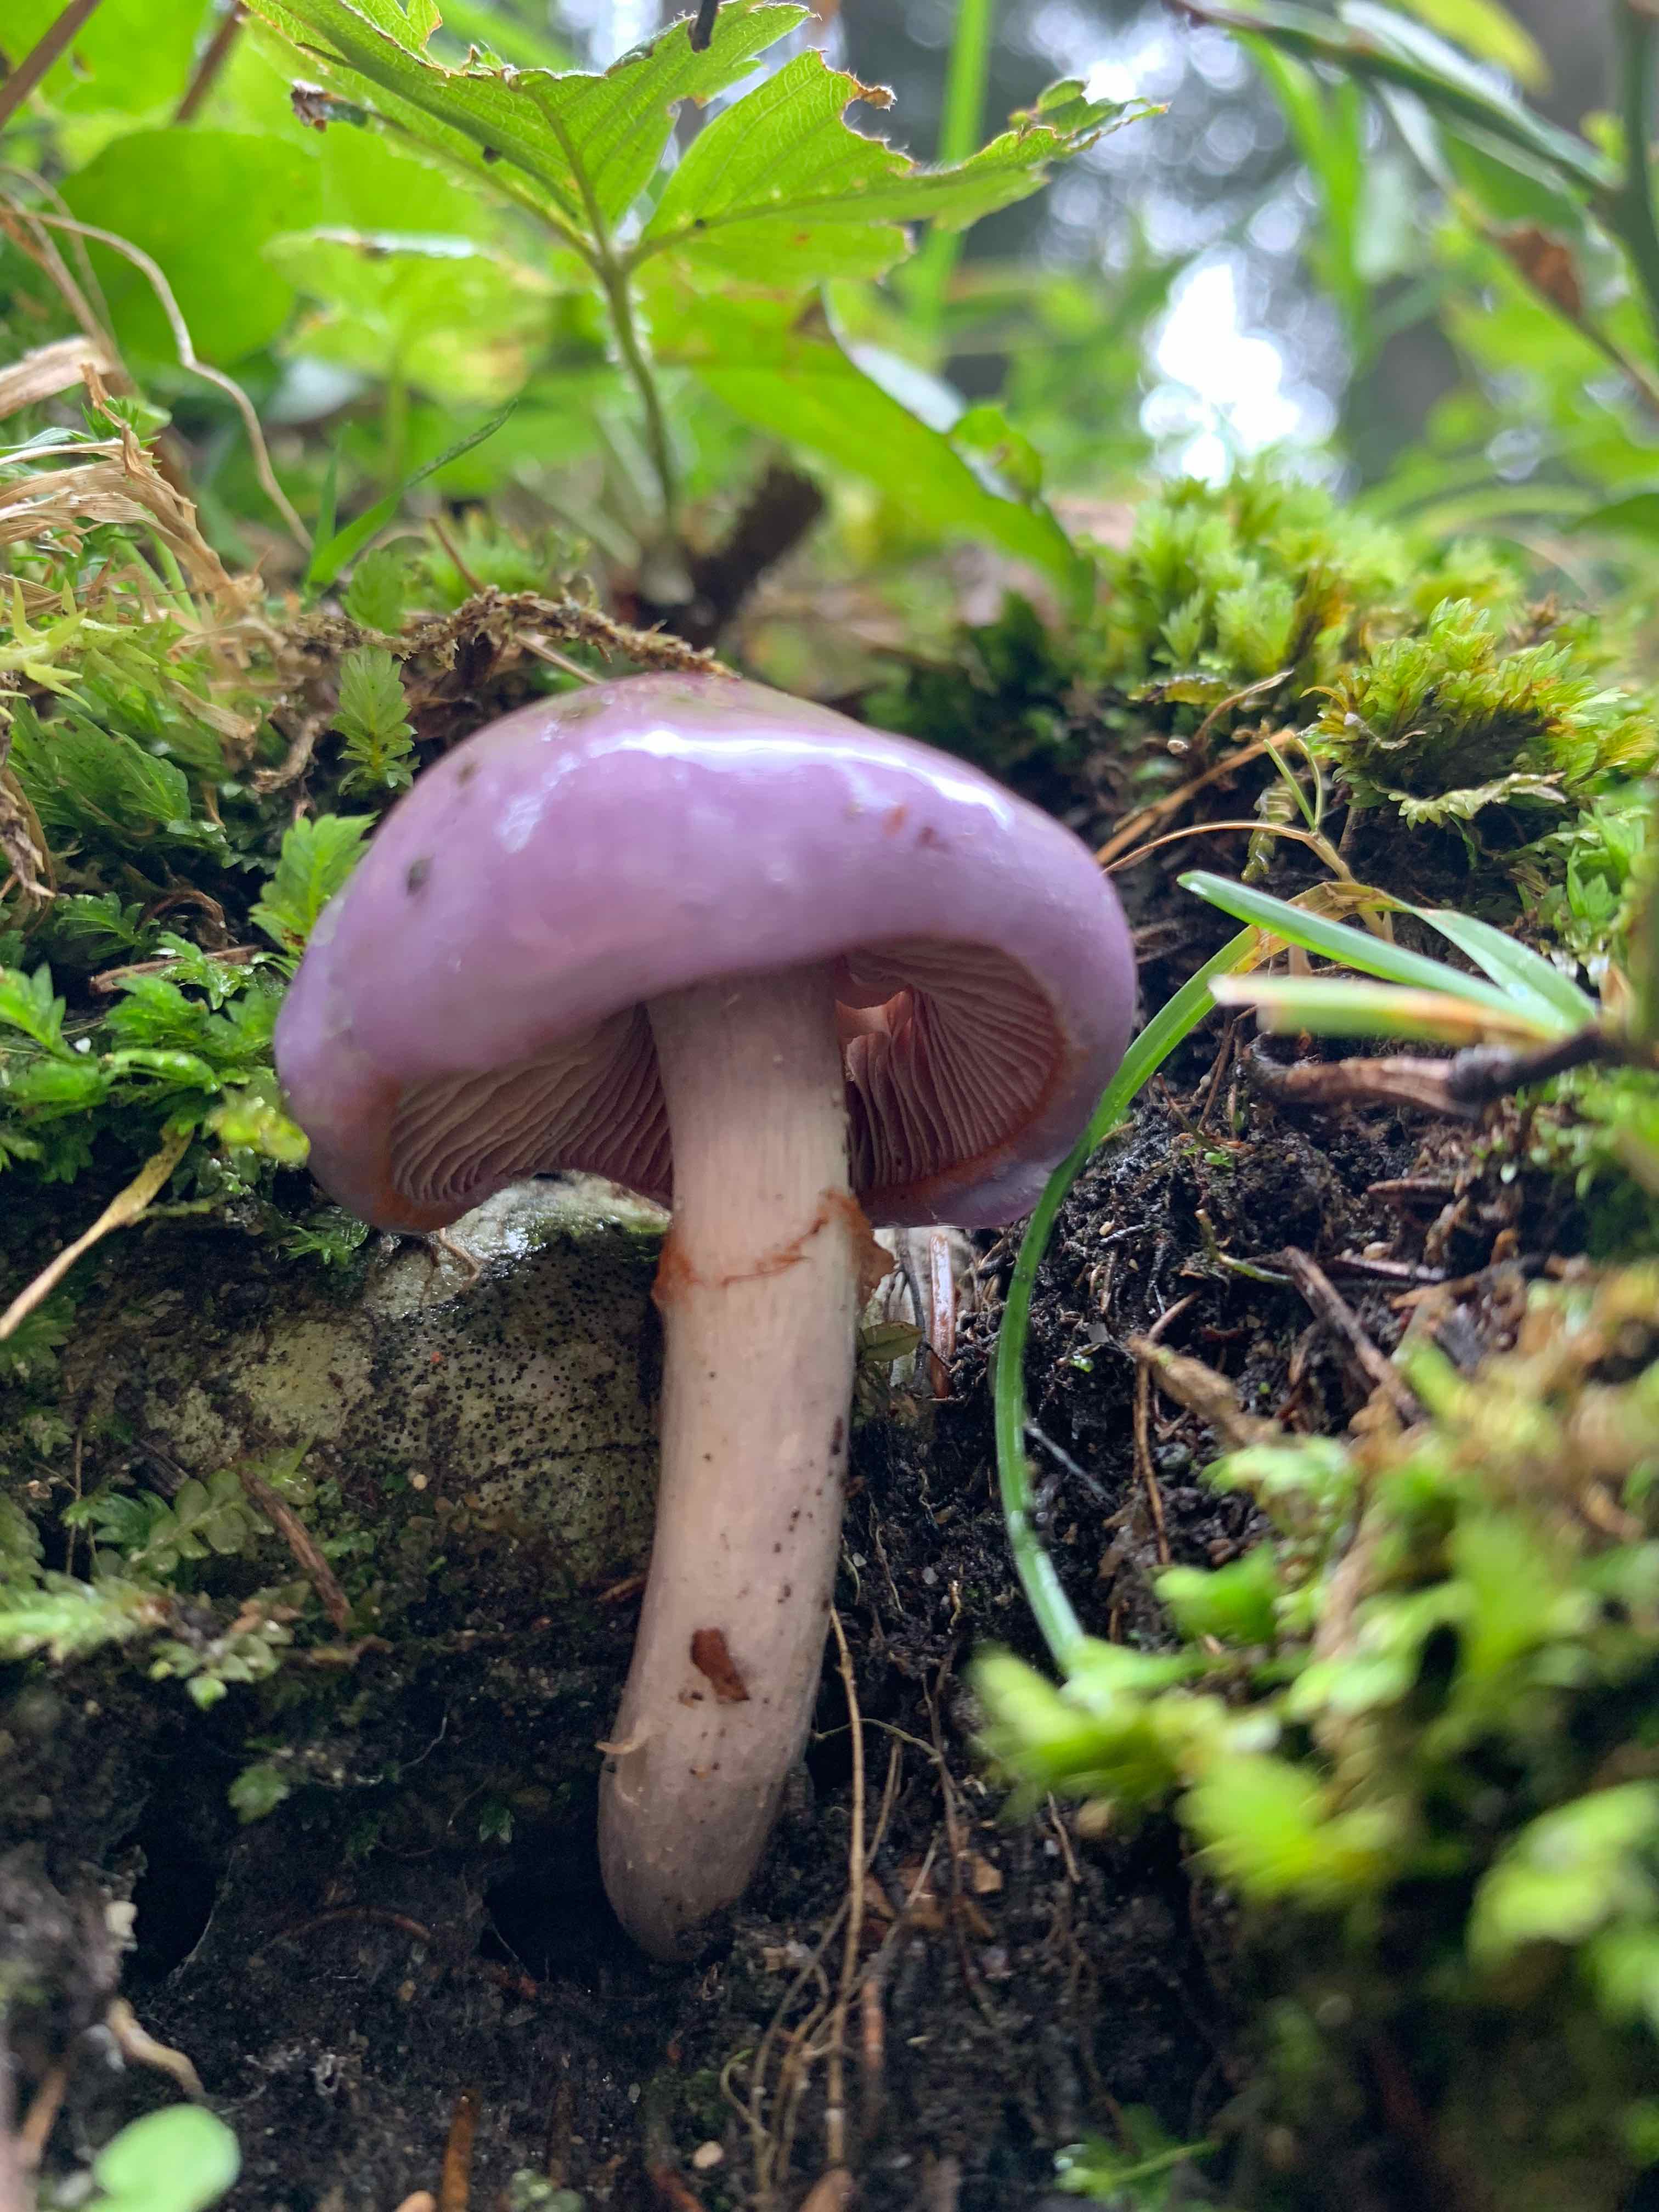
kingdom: Fungi
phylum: Basidiomycota
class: Agaricomycetes
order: Agaricales
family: Cortinariaceae
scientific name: Cortinariaceae
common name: slørhatfamilien
